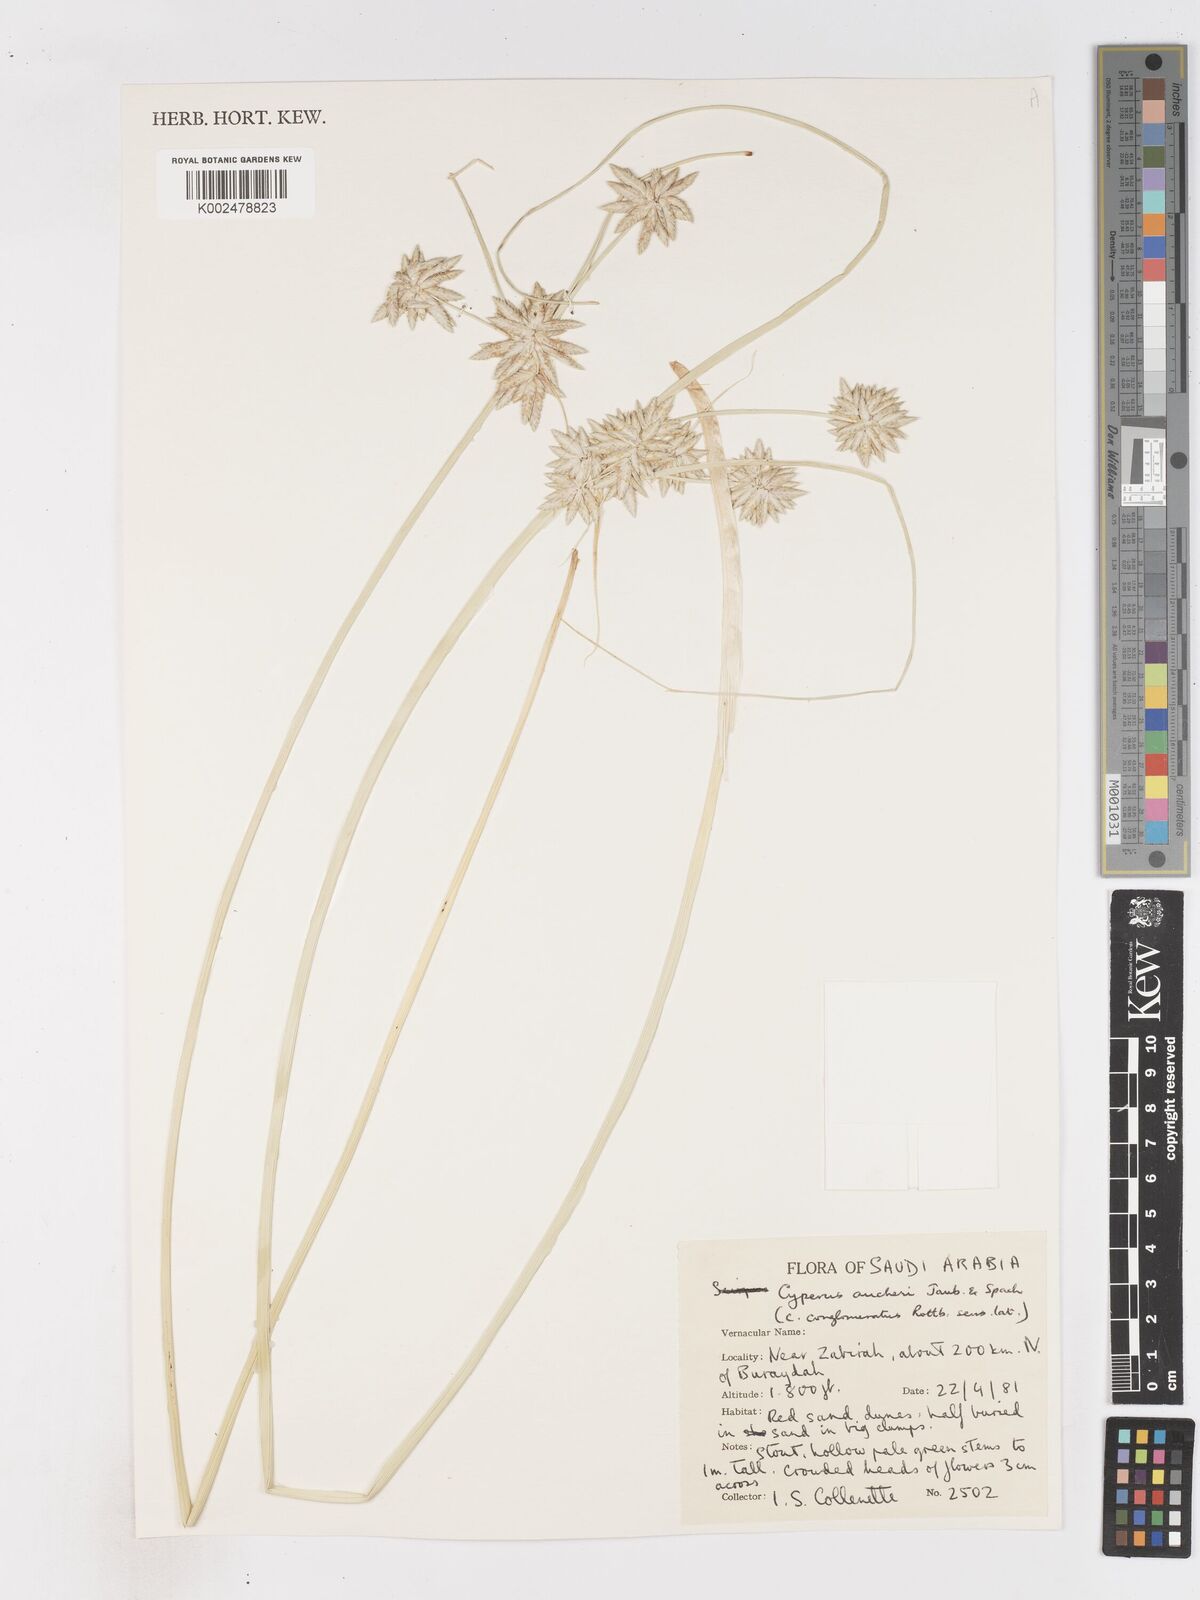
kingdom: Plantae
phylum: Tracheophyta
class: Liliopsida
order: Poales
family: Cyperaceae
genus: Cyperus
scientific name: Cyperus aucheri
